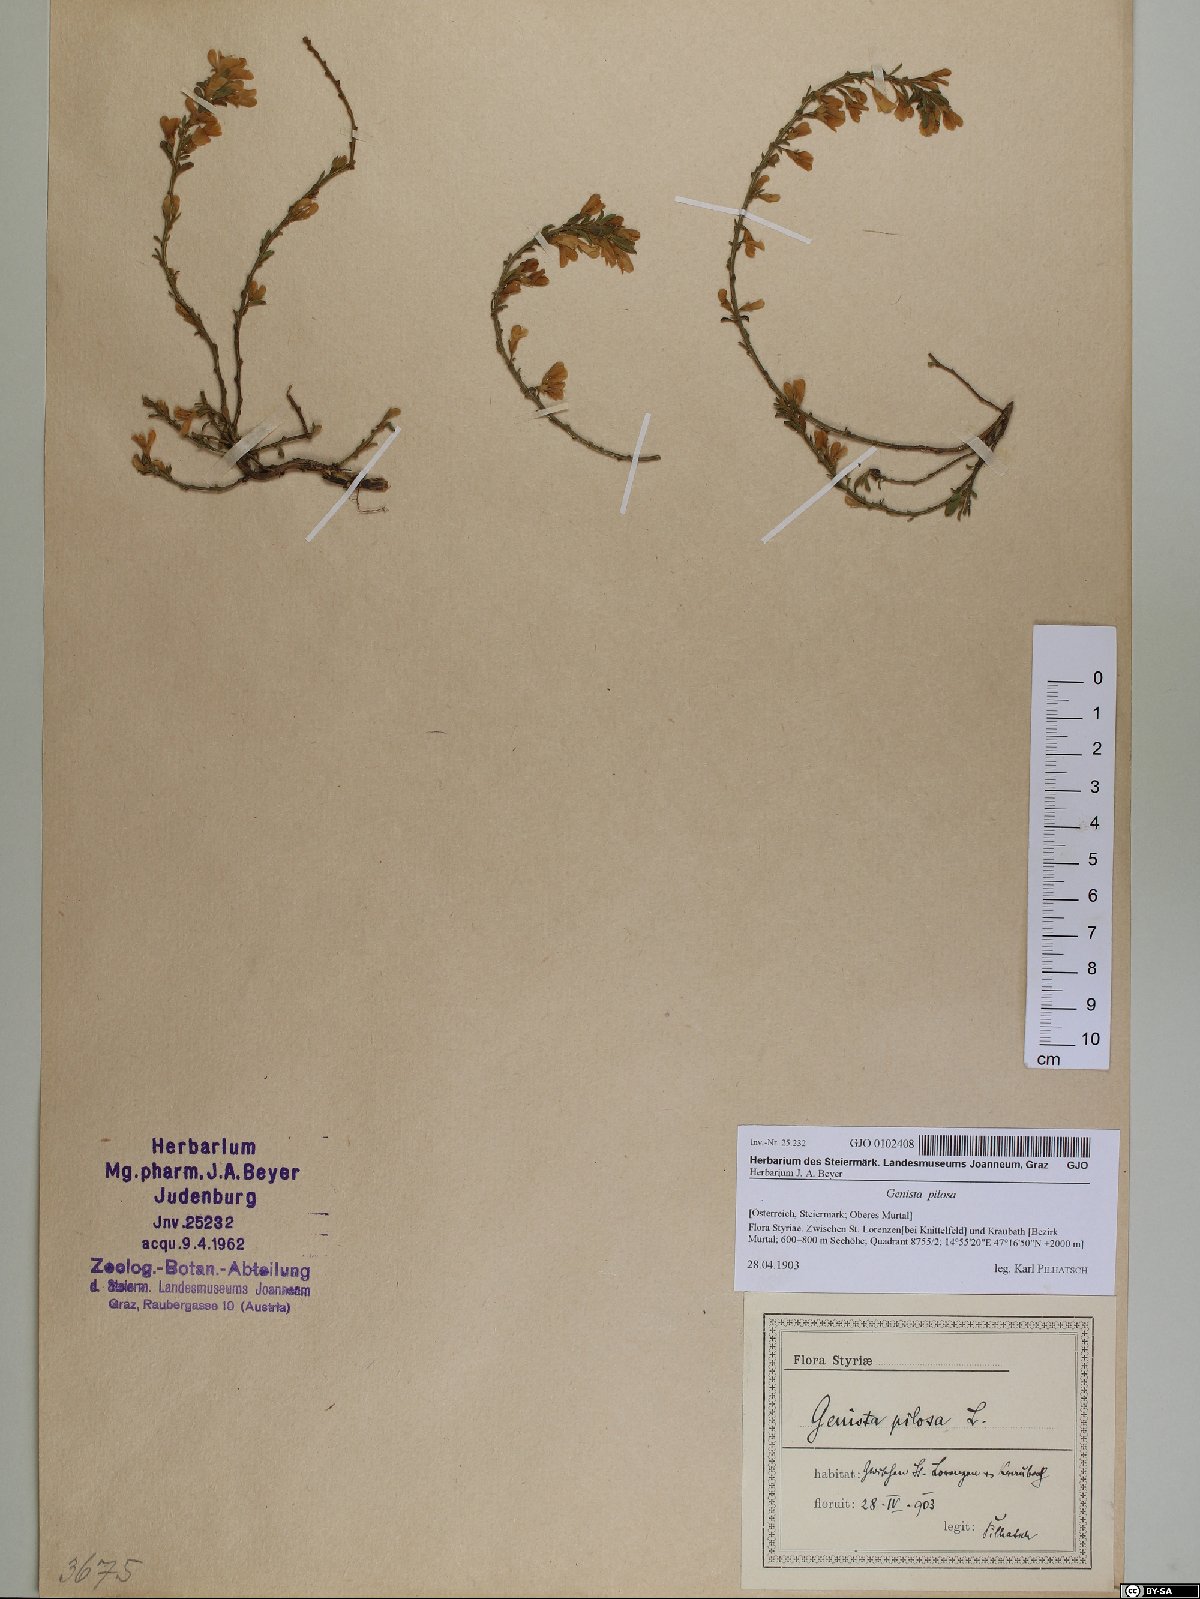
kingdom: Plantae
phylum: Tracheophyta
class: Magnoliopsida
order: Fabales
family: Fabaceae
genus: Genista
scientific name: Genista pilosa
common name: Hairy greenweed
